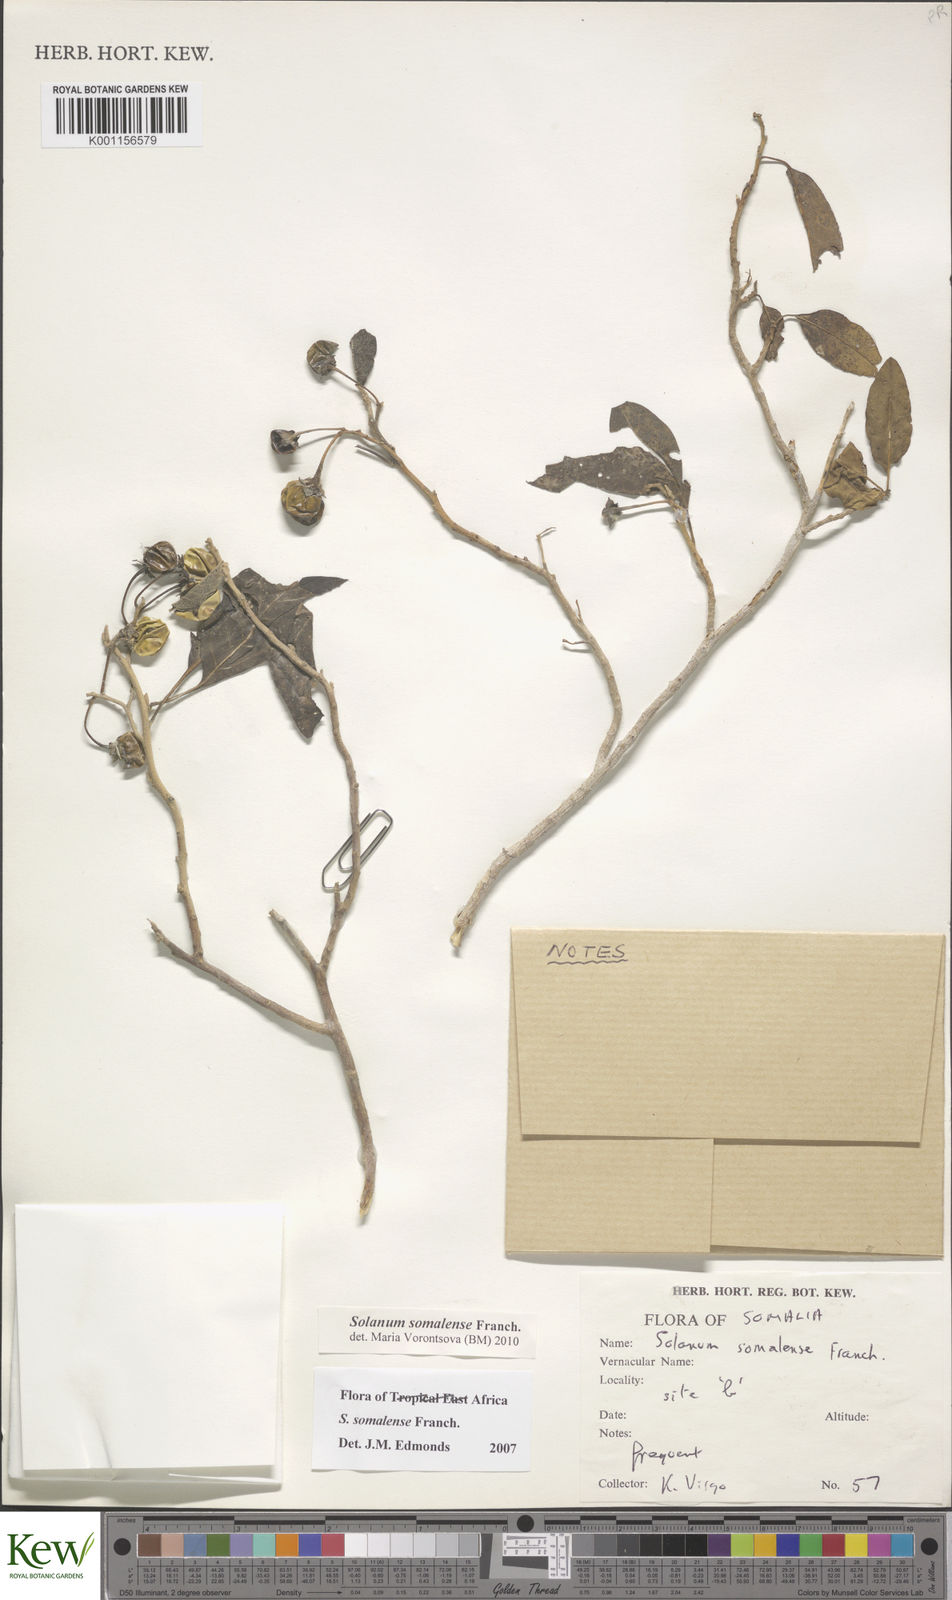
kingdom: Plantae
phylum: Tracheophyta
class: Magnoliopsida
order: Solanales
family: Solanaceae
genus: Solanum
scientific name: Solanum somalense
